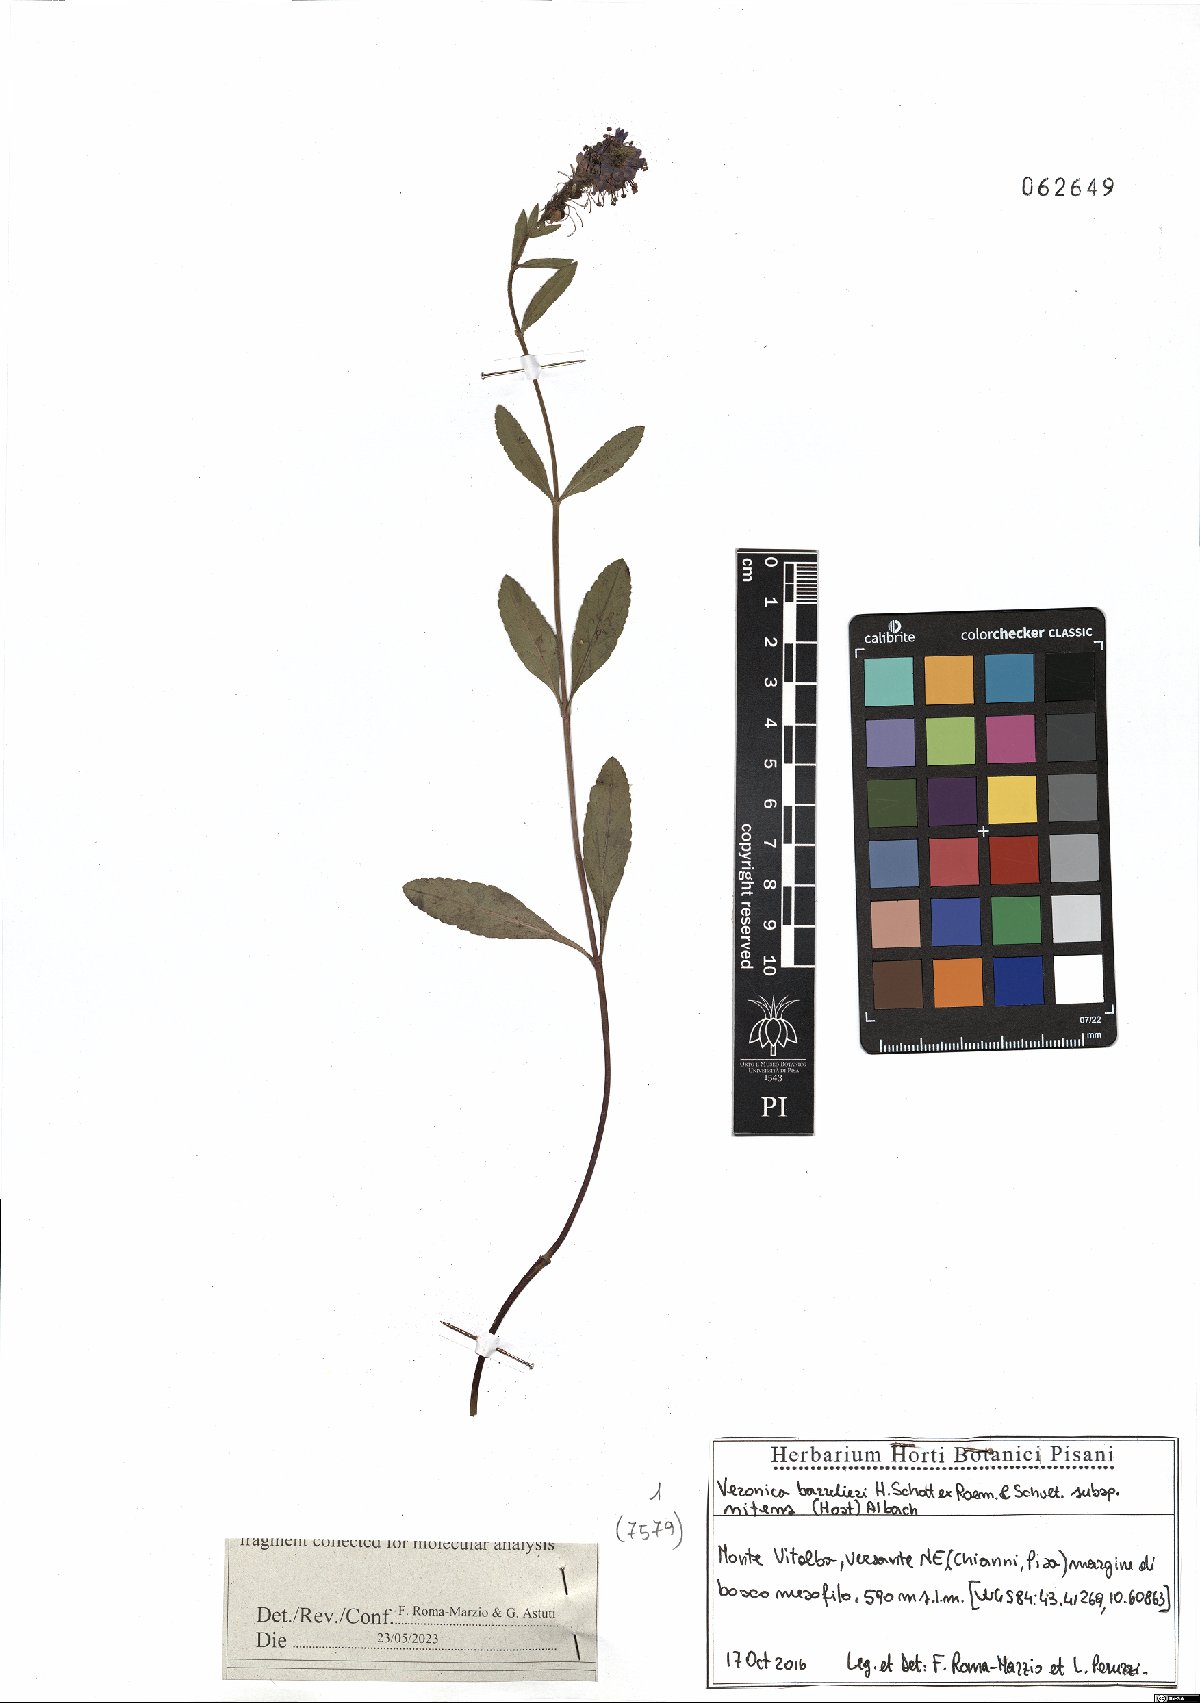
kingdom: Plantae
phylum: Tracheophyta
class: Magnoliopsida
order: Lamiales
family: Plantaginaceae
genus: Veronica
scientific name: Veronica barrelieri
